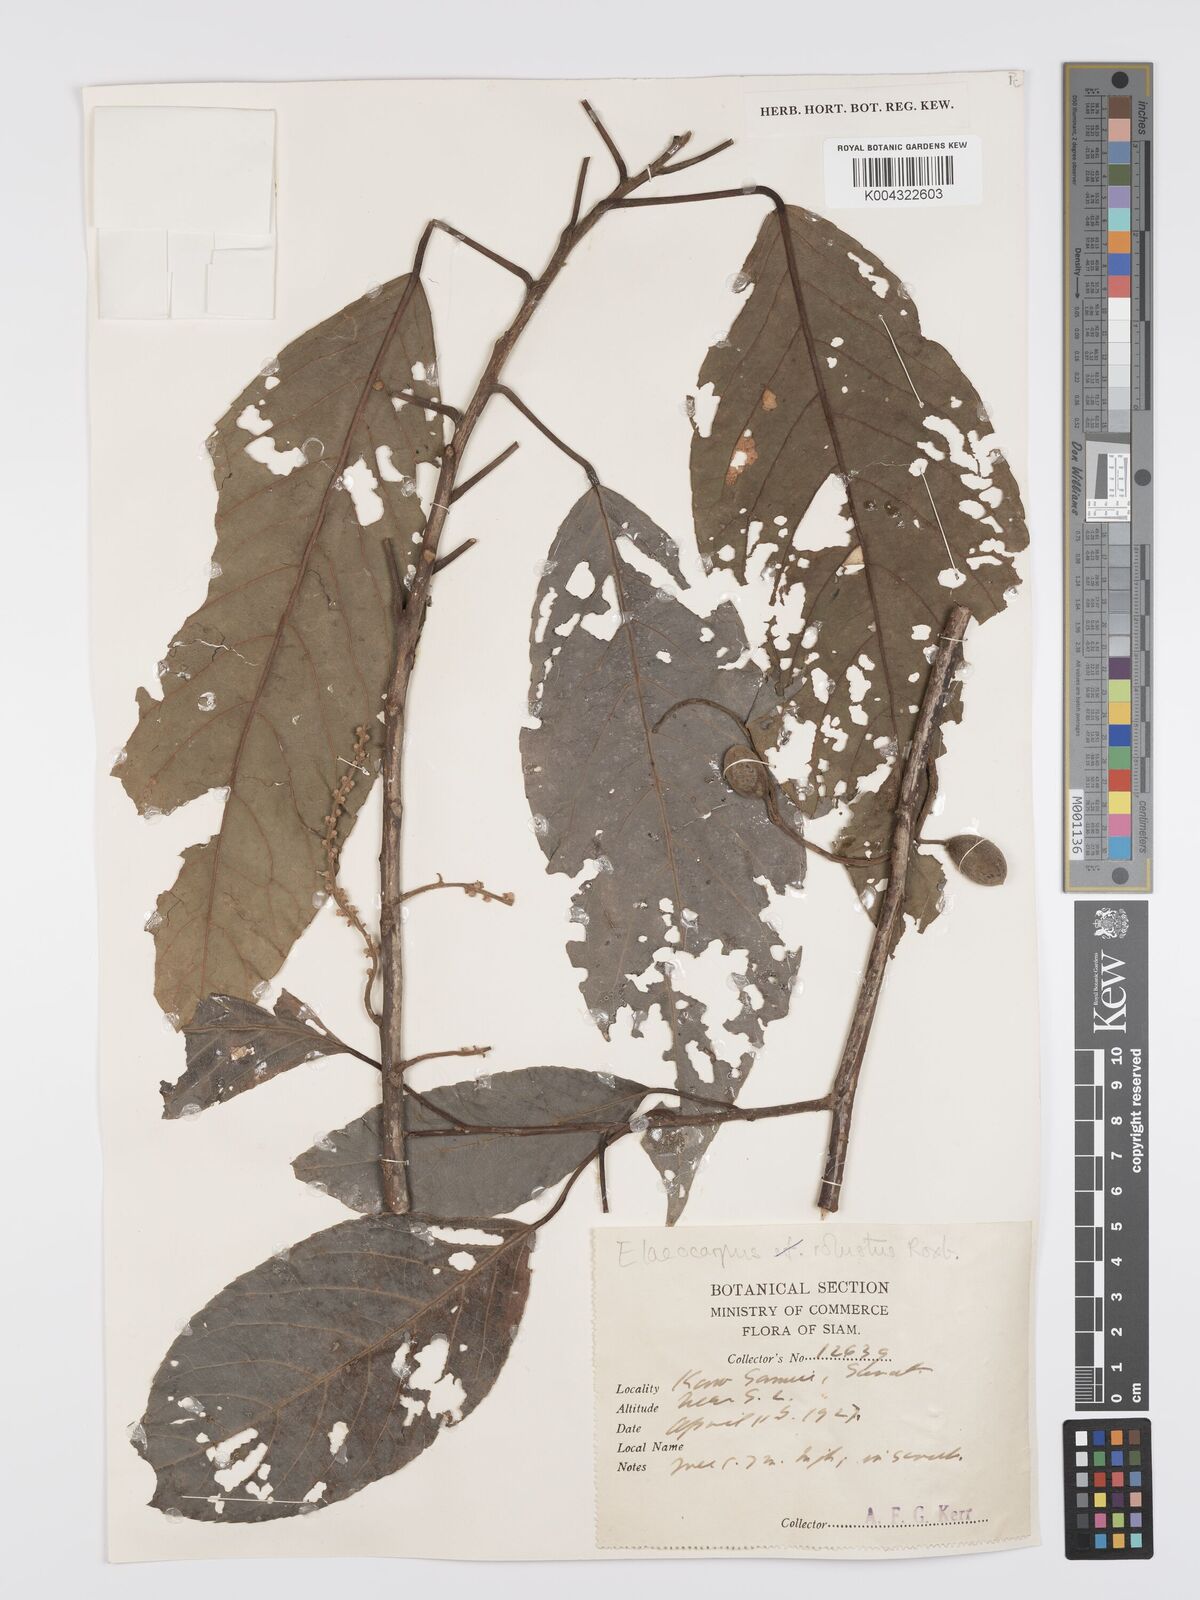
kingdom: Plantae
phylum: Tracheophyta
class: Magnoliopsida
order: Oxalidales
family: Elaeocarpaceae
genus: Elaeocarpus
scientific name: Elaeocarpus robustus
